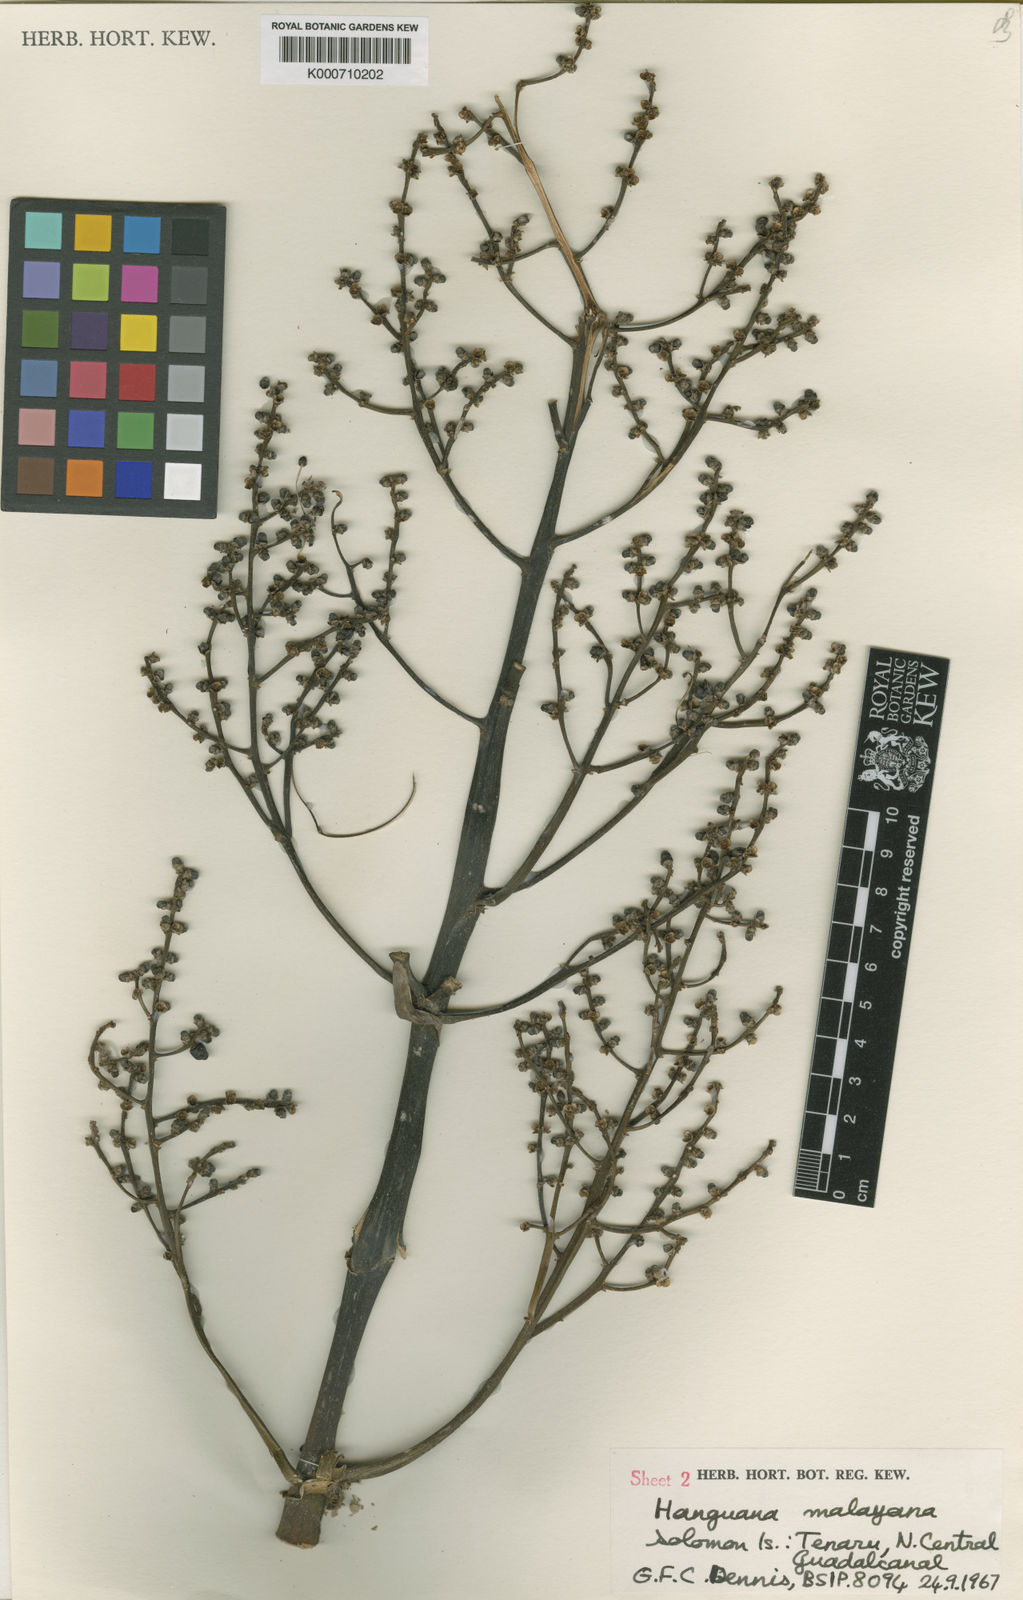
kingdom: Plantae
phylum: Tracheophyta
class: Liliopsida
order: Commelinales
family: Hanguanaceae
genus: Hanguana
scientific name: Hanguana malayana
